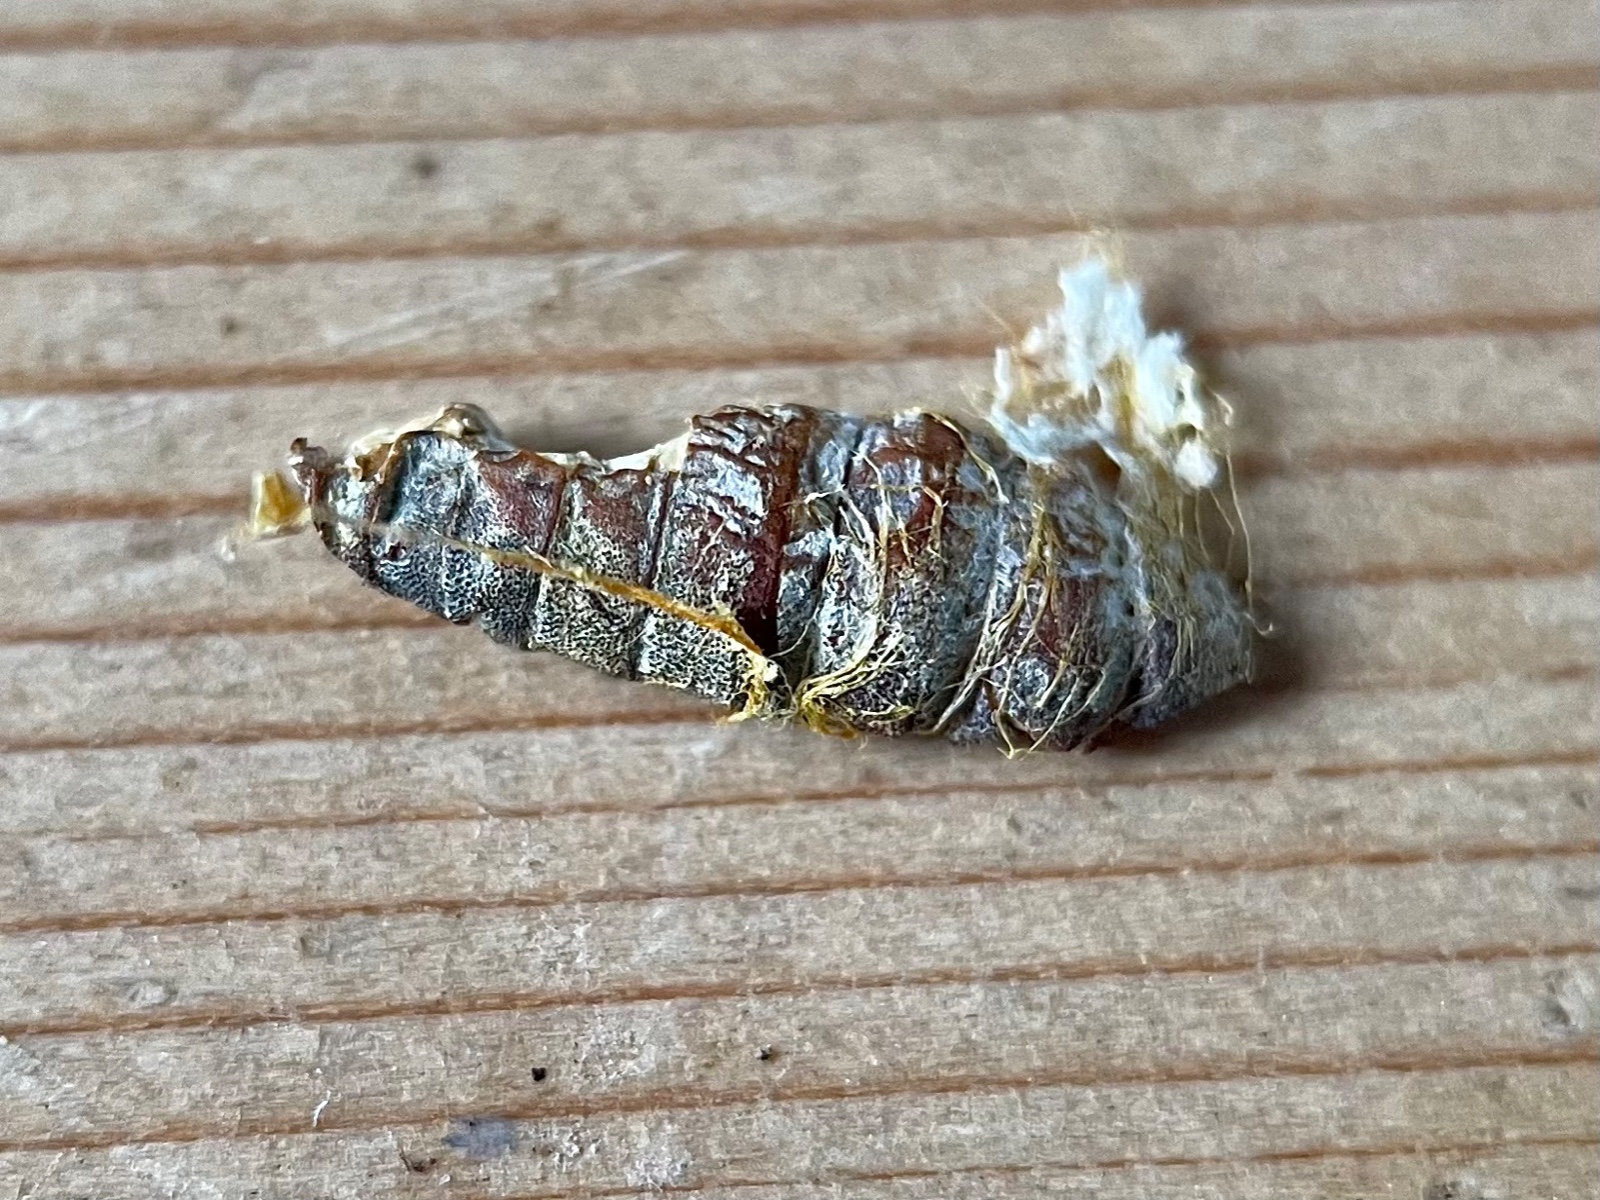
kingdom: Fungi
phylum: Ascomycota
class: Sordariomycetes
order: Hypocreales
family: Cordycipitaceae
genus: Cordyceps
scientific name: Cordyceps farinosa
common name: melet snyltekølle
